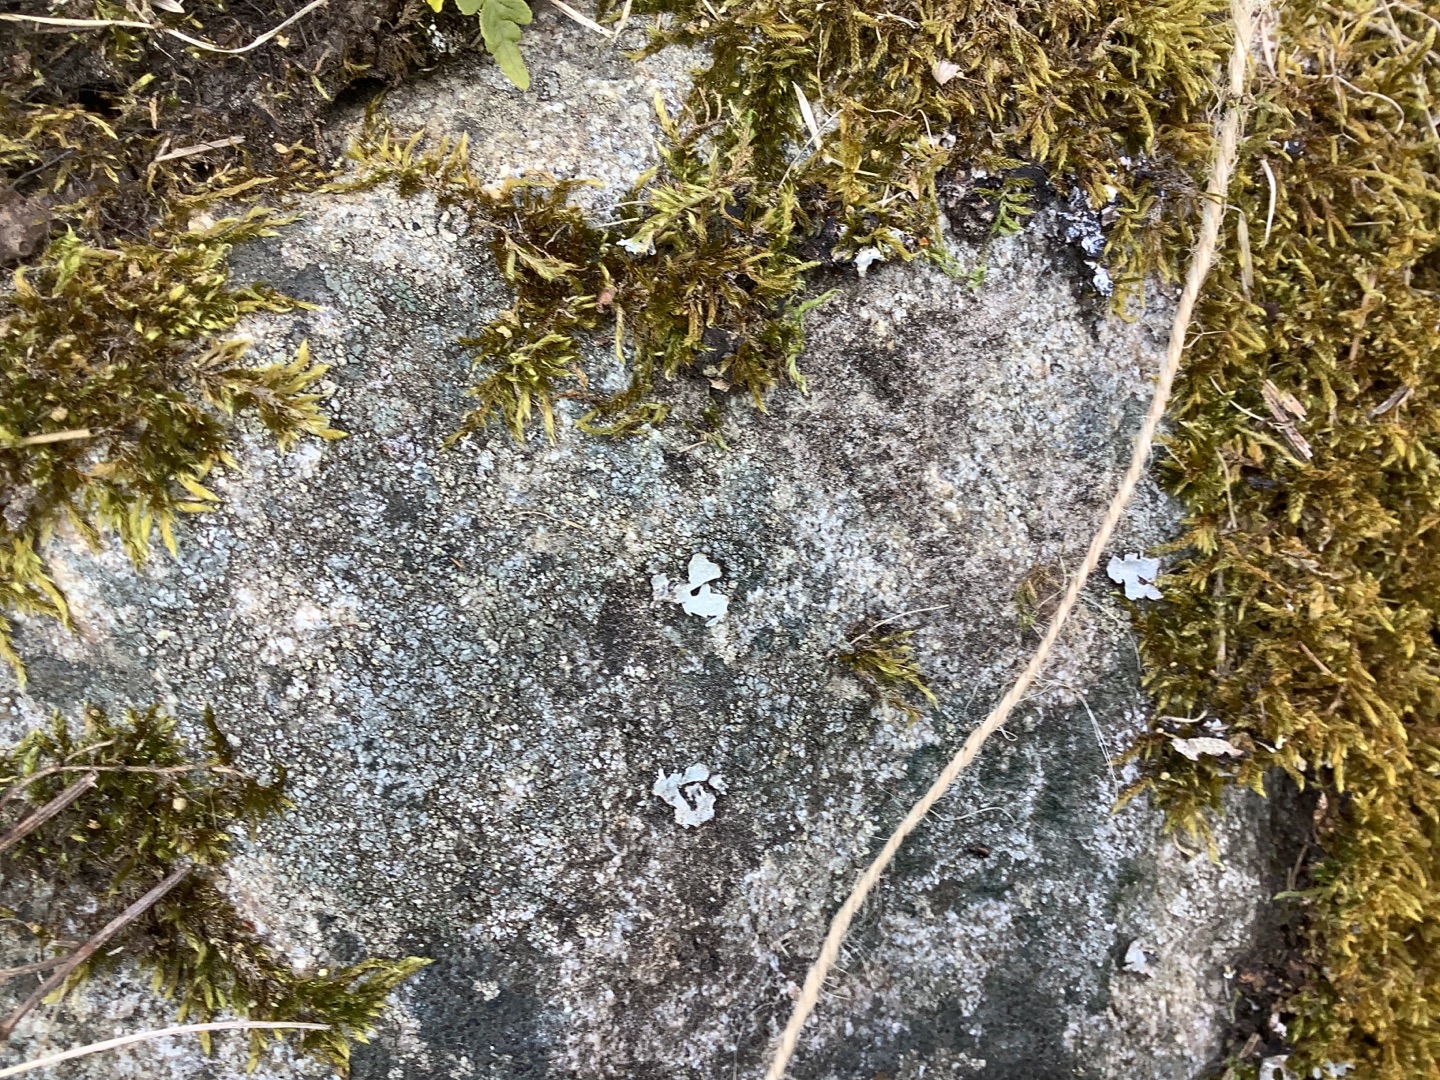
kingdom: Plantae
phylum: Bryophyta
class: Bryopsida
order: Hypnales
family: Hypnaceae
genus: Hypnum
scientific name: Hypnum cupressiforme
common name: Almindelig cypresmos
